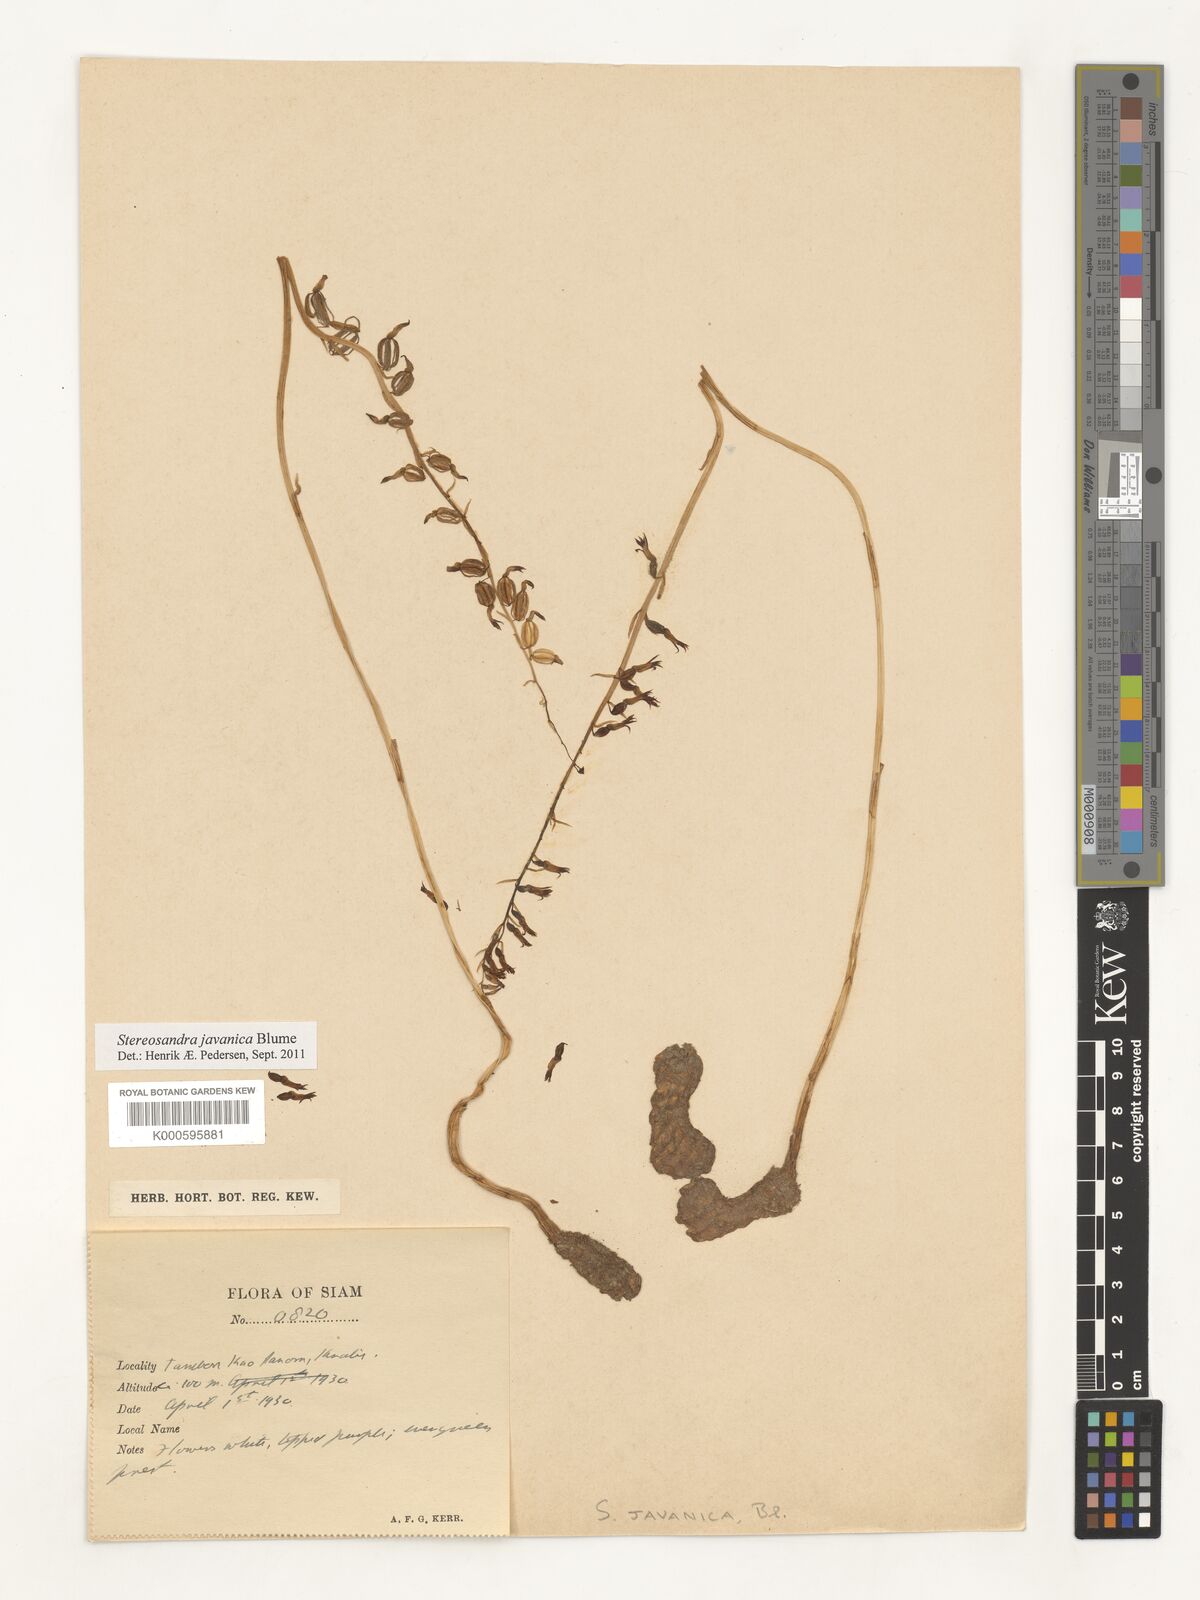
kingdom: Plantae
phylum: Tracheophyta
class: Liliopsida
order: Asparagales
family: Orchidaceae
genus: Stereosandra
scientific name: Stereosandra javanica
